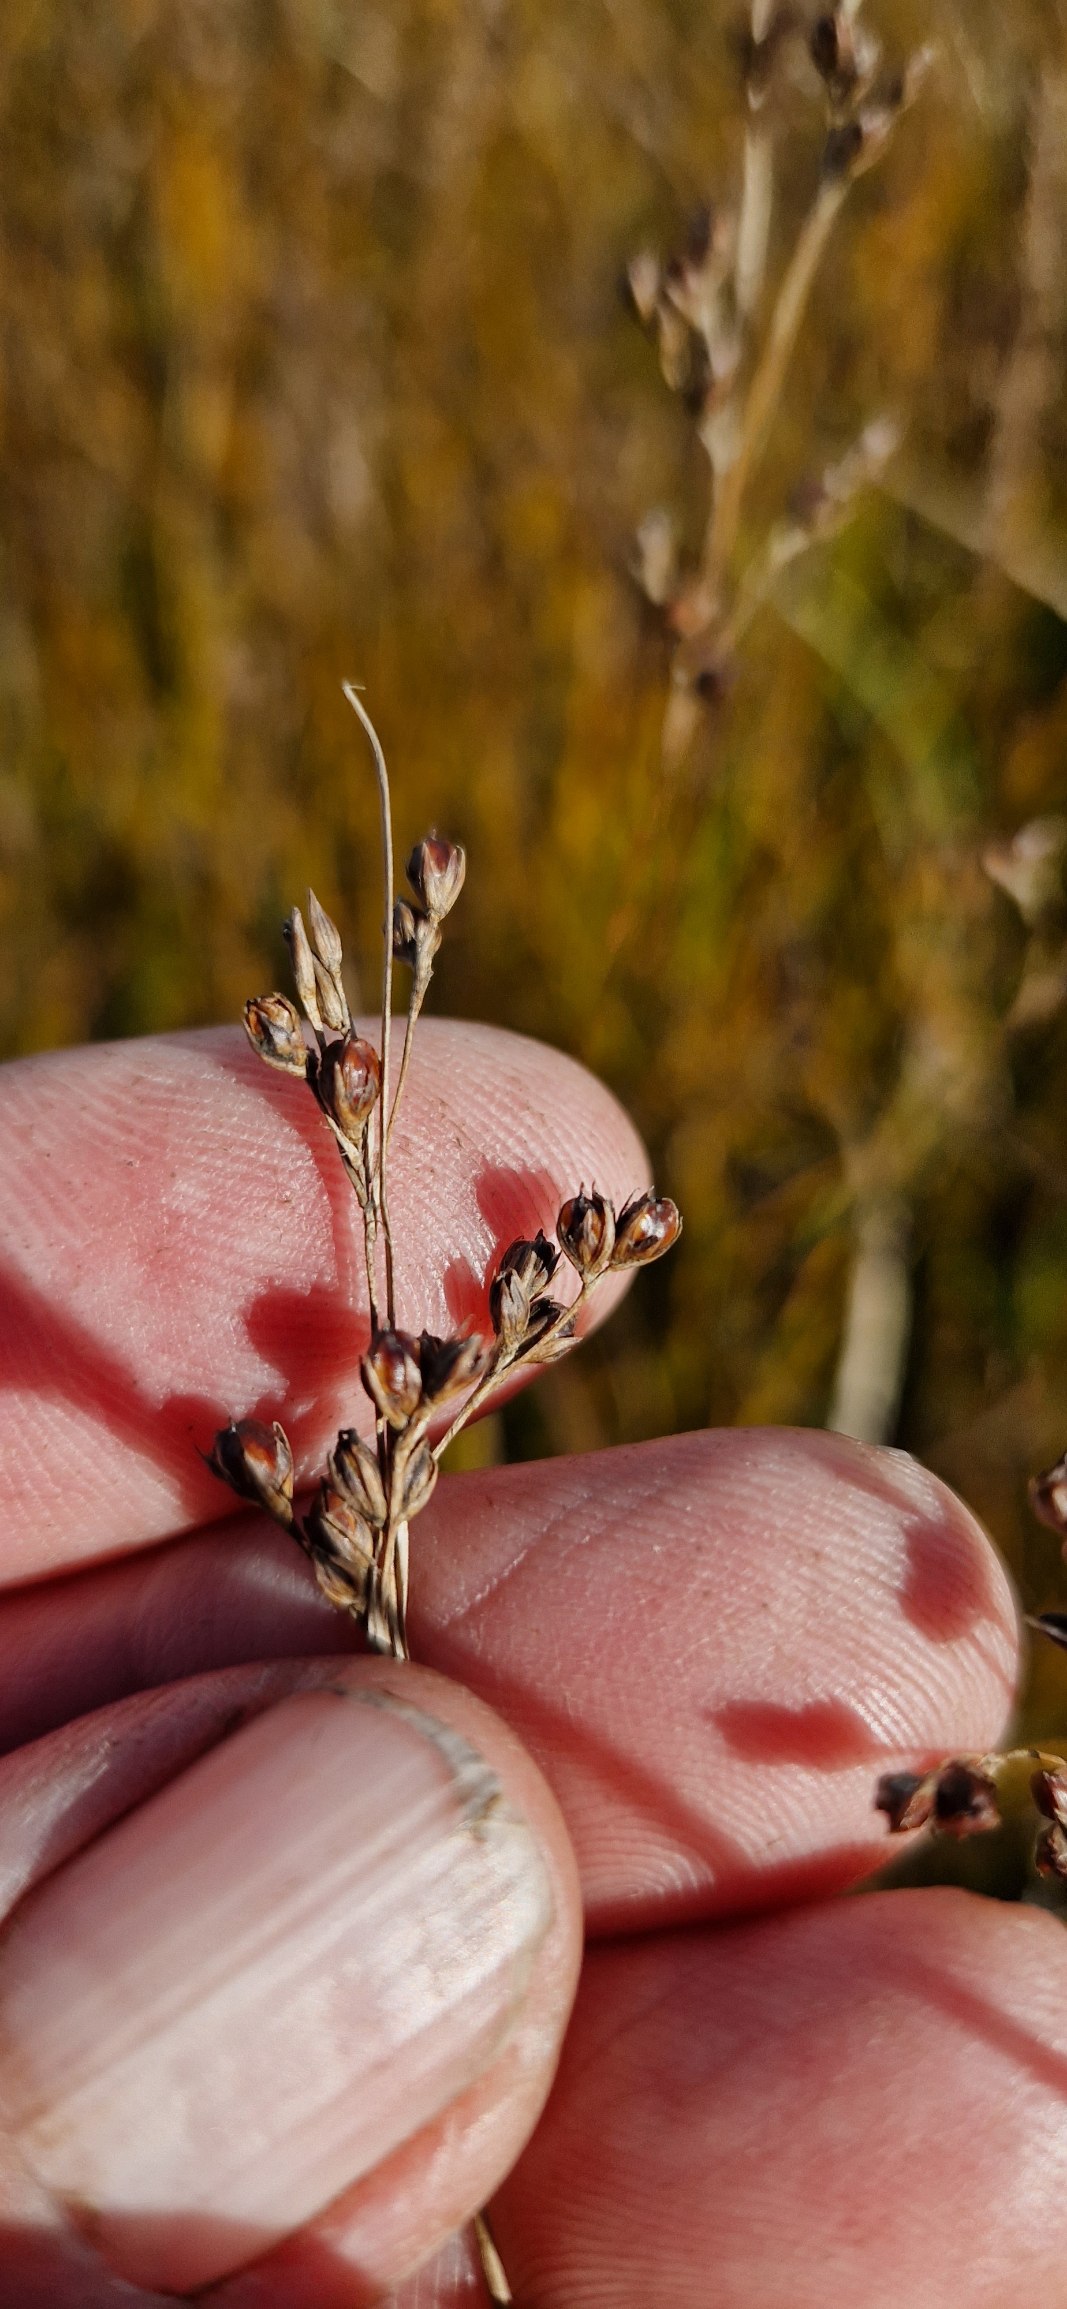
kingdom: Plantae
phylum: Tracheophyta
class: Liliopsida
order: Poales
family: Juncaceae
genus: Juncus
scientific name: Juncus gerardi
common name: Harril
